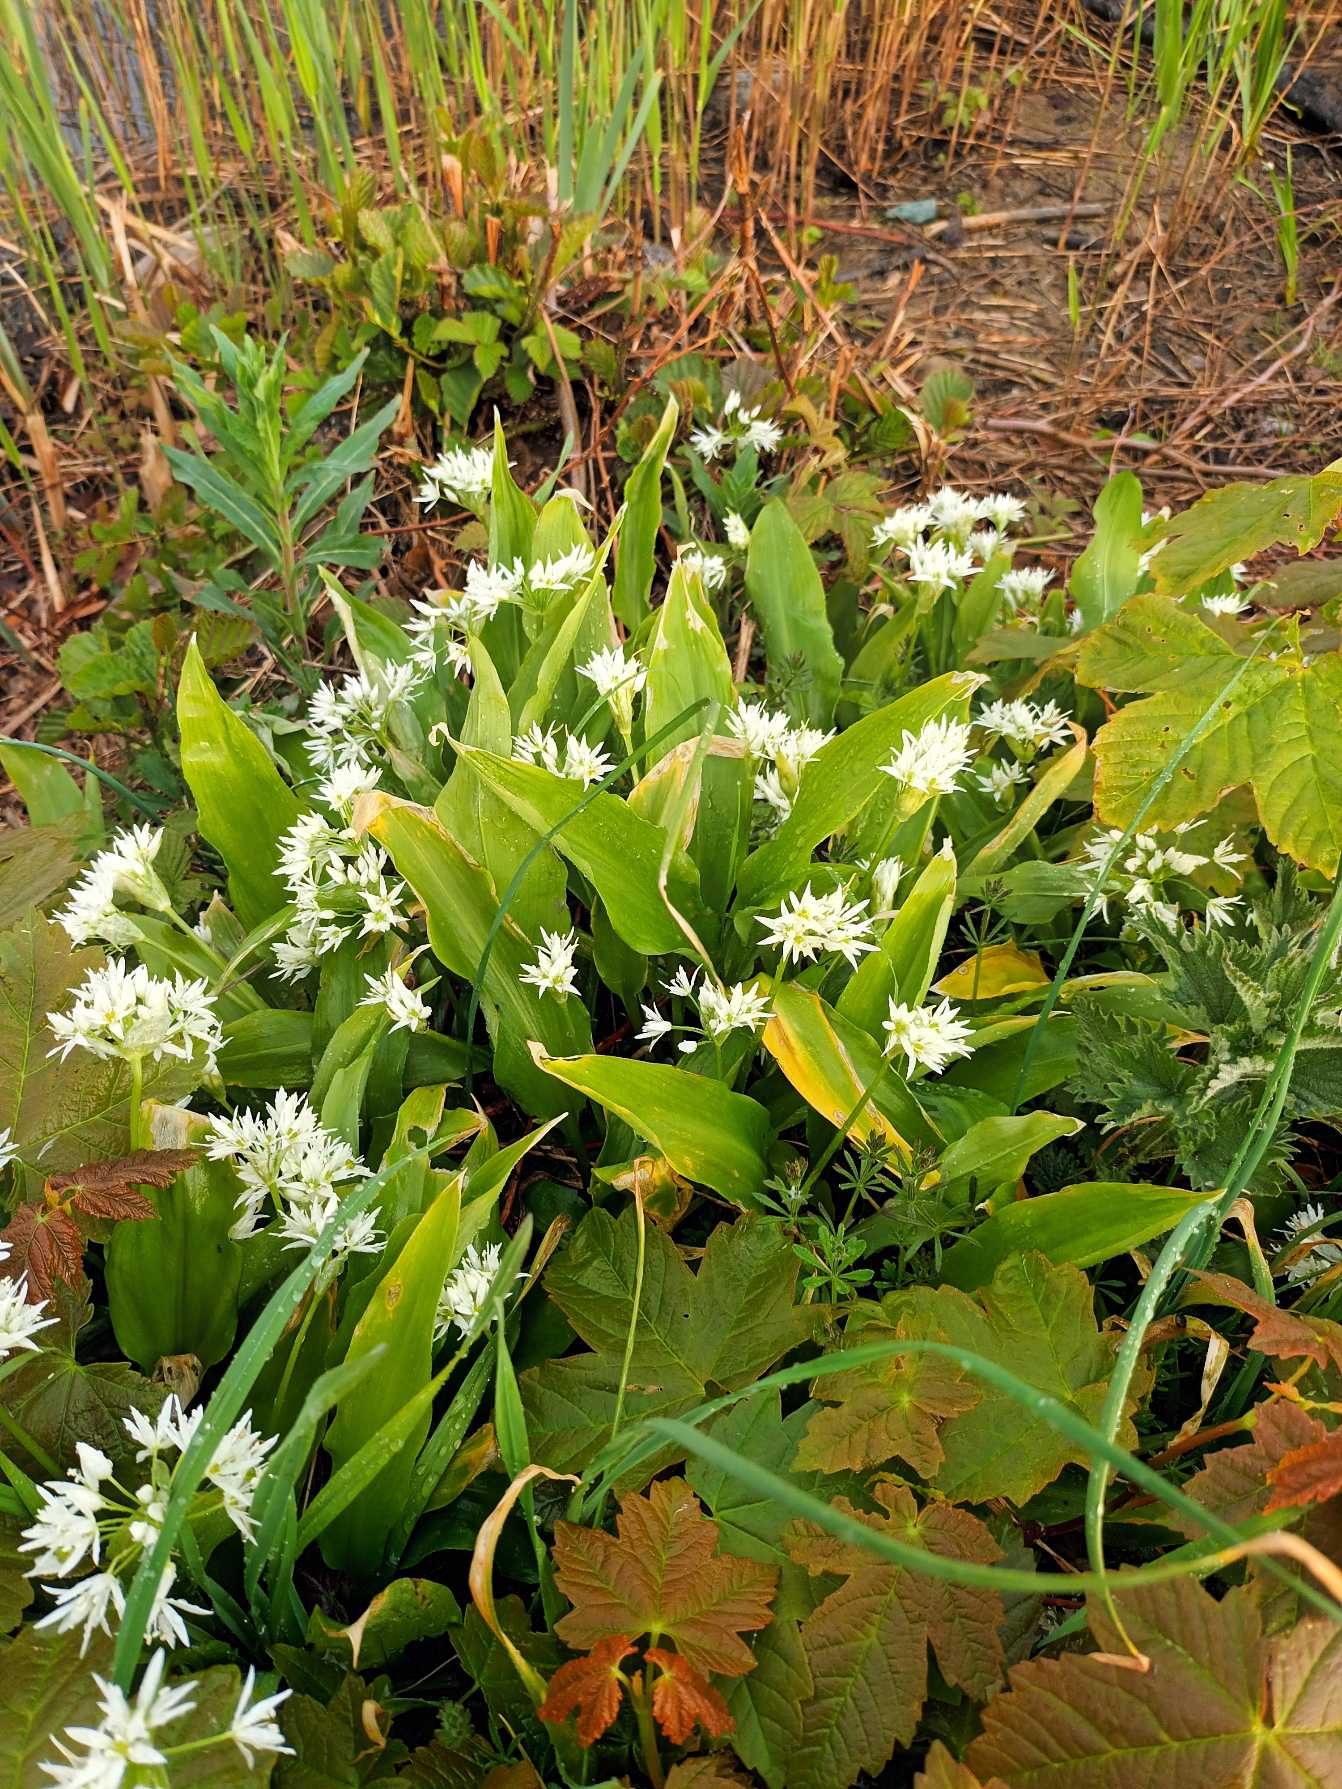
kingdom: Plantae
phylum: Tracheophyta
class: Liliopsida
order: Asparagales
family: Amaryllidaceae
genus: Allium
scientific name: Allium ursinum
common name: Rams-løg
